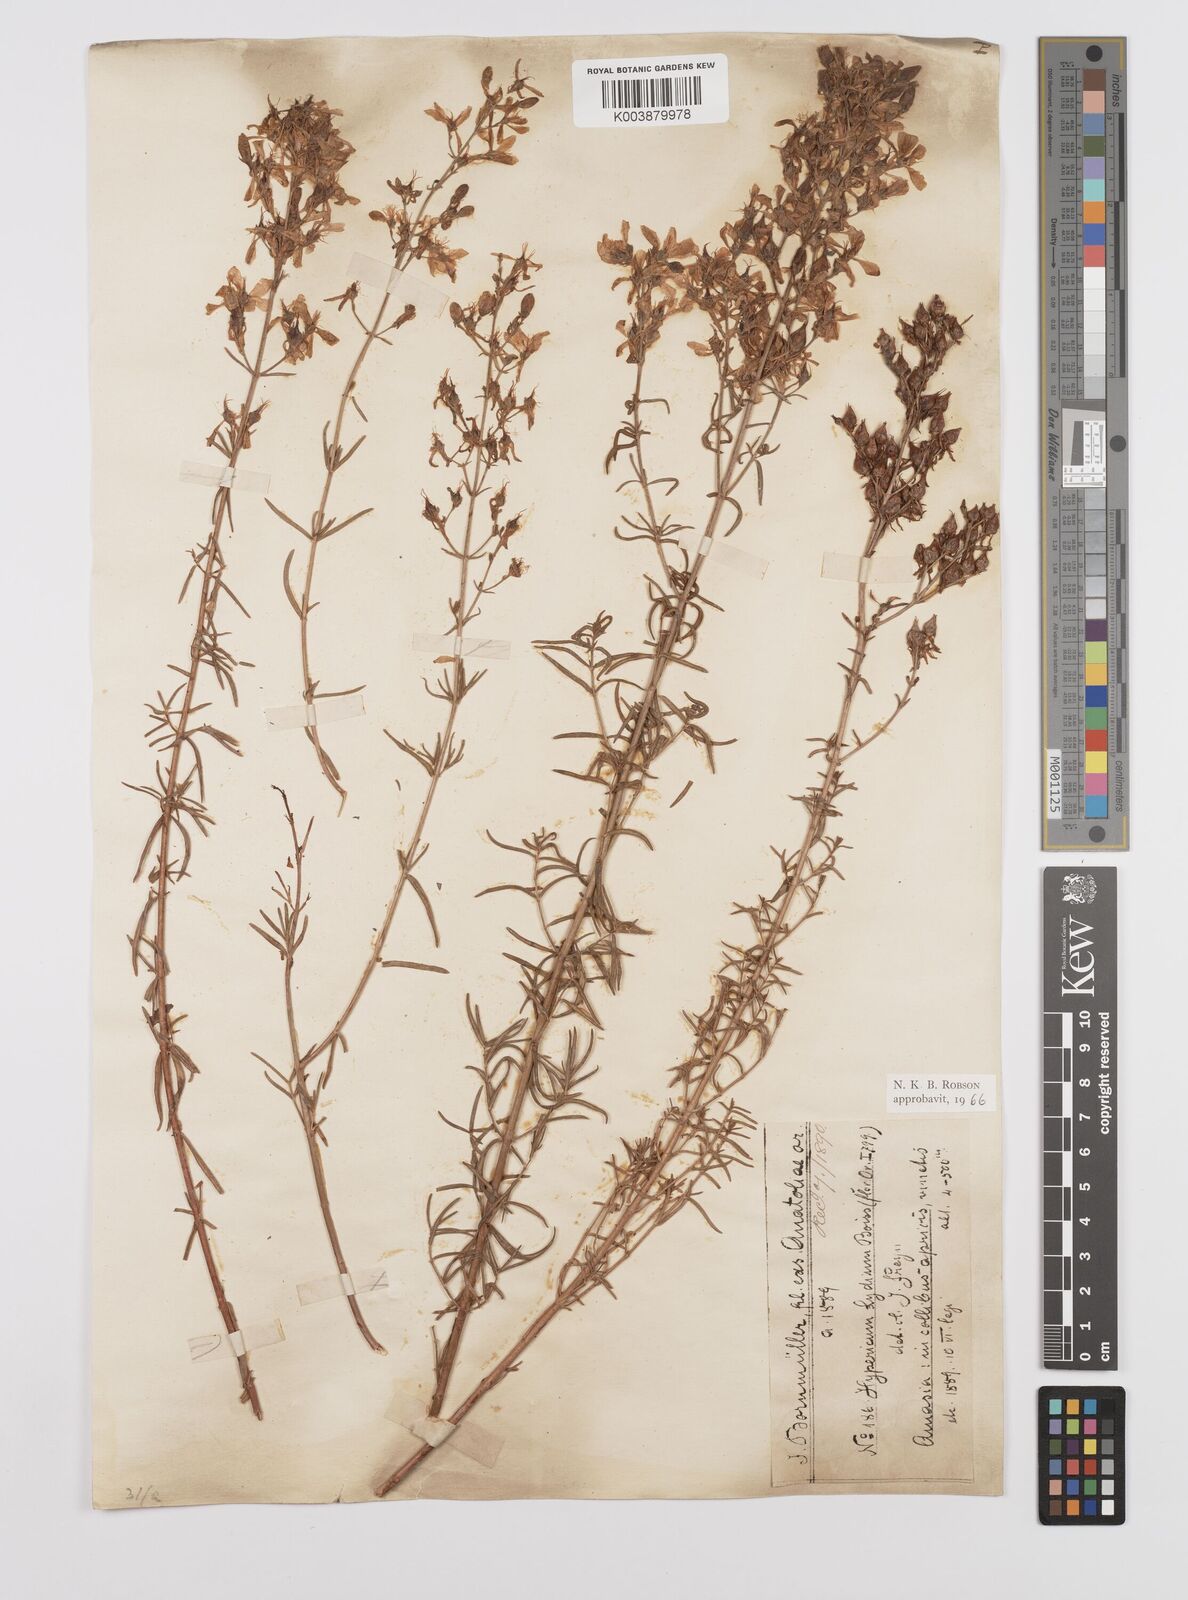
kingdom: Plantae
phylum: Tracheophyta
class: Magnoliopsida
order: Malpighiales
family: Hypericaceae
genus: Hypericum
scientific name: Hypericum lydium
